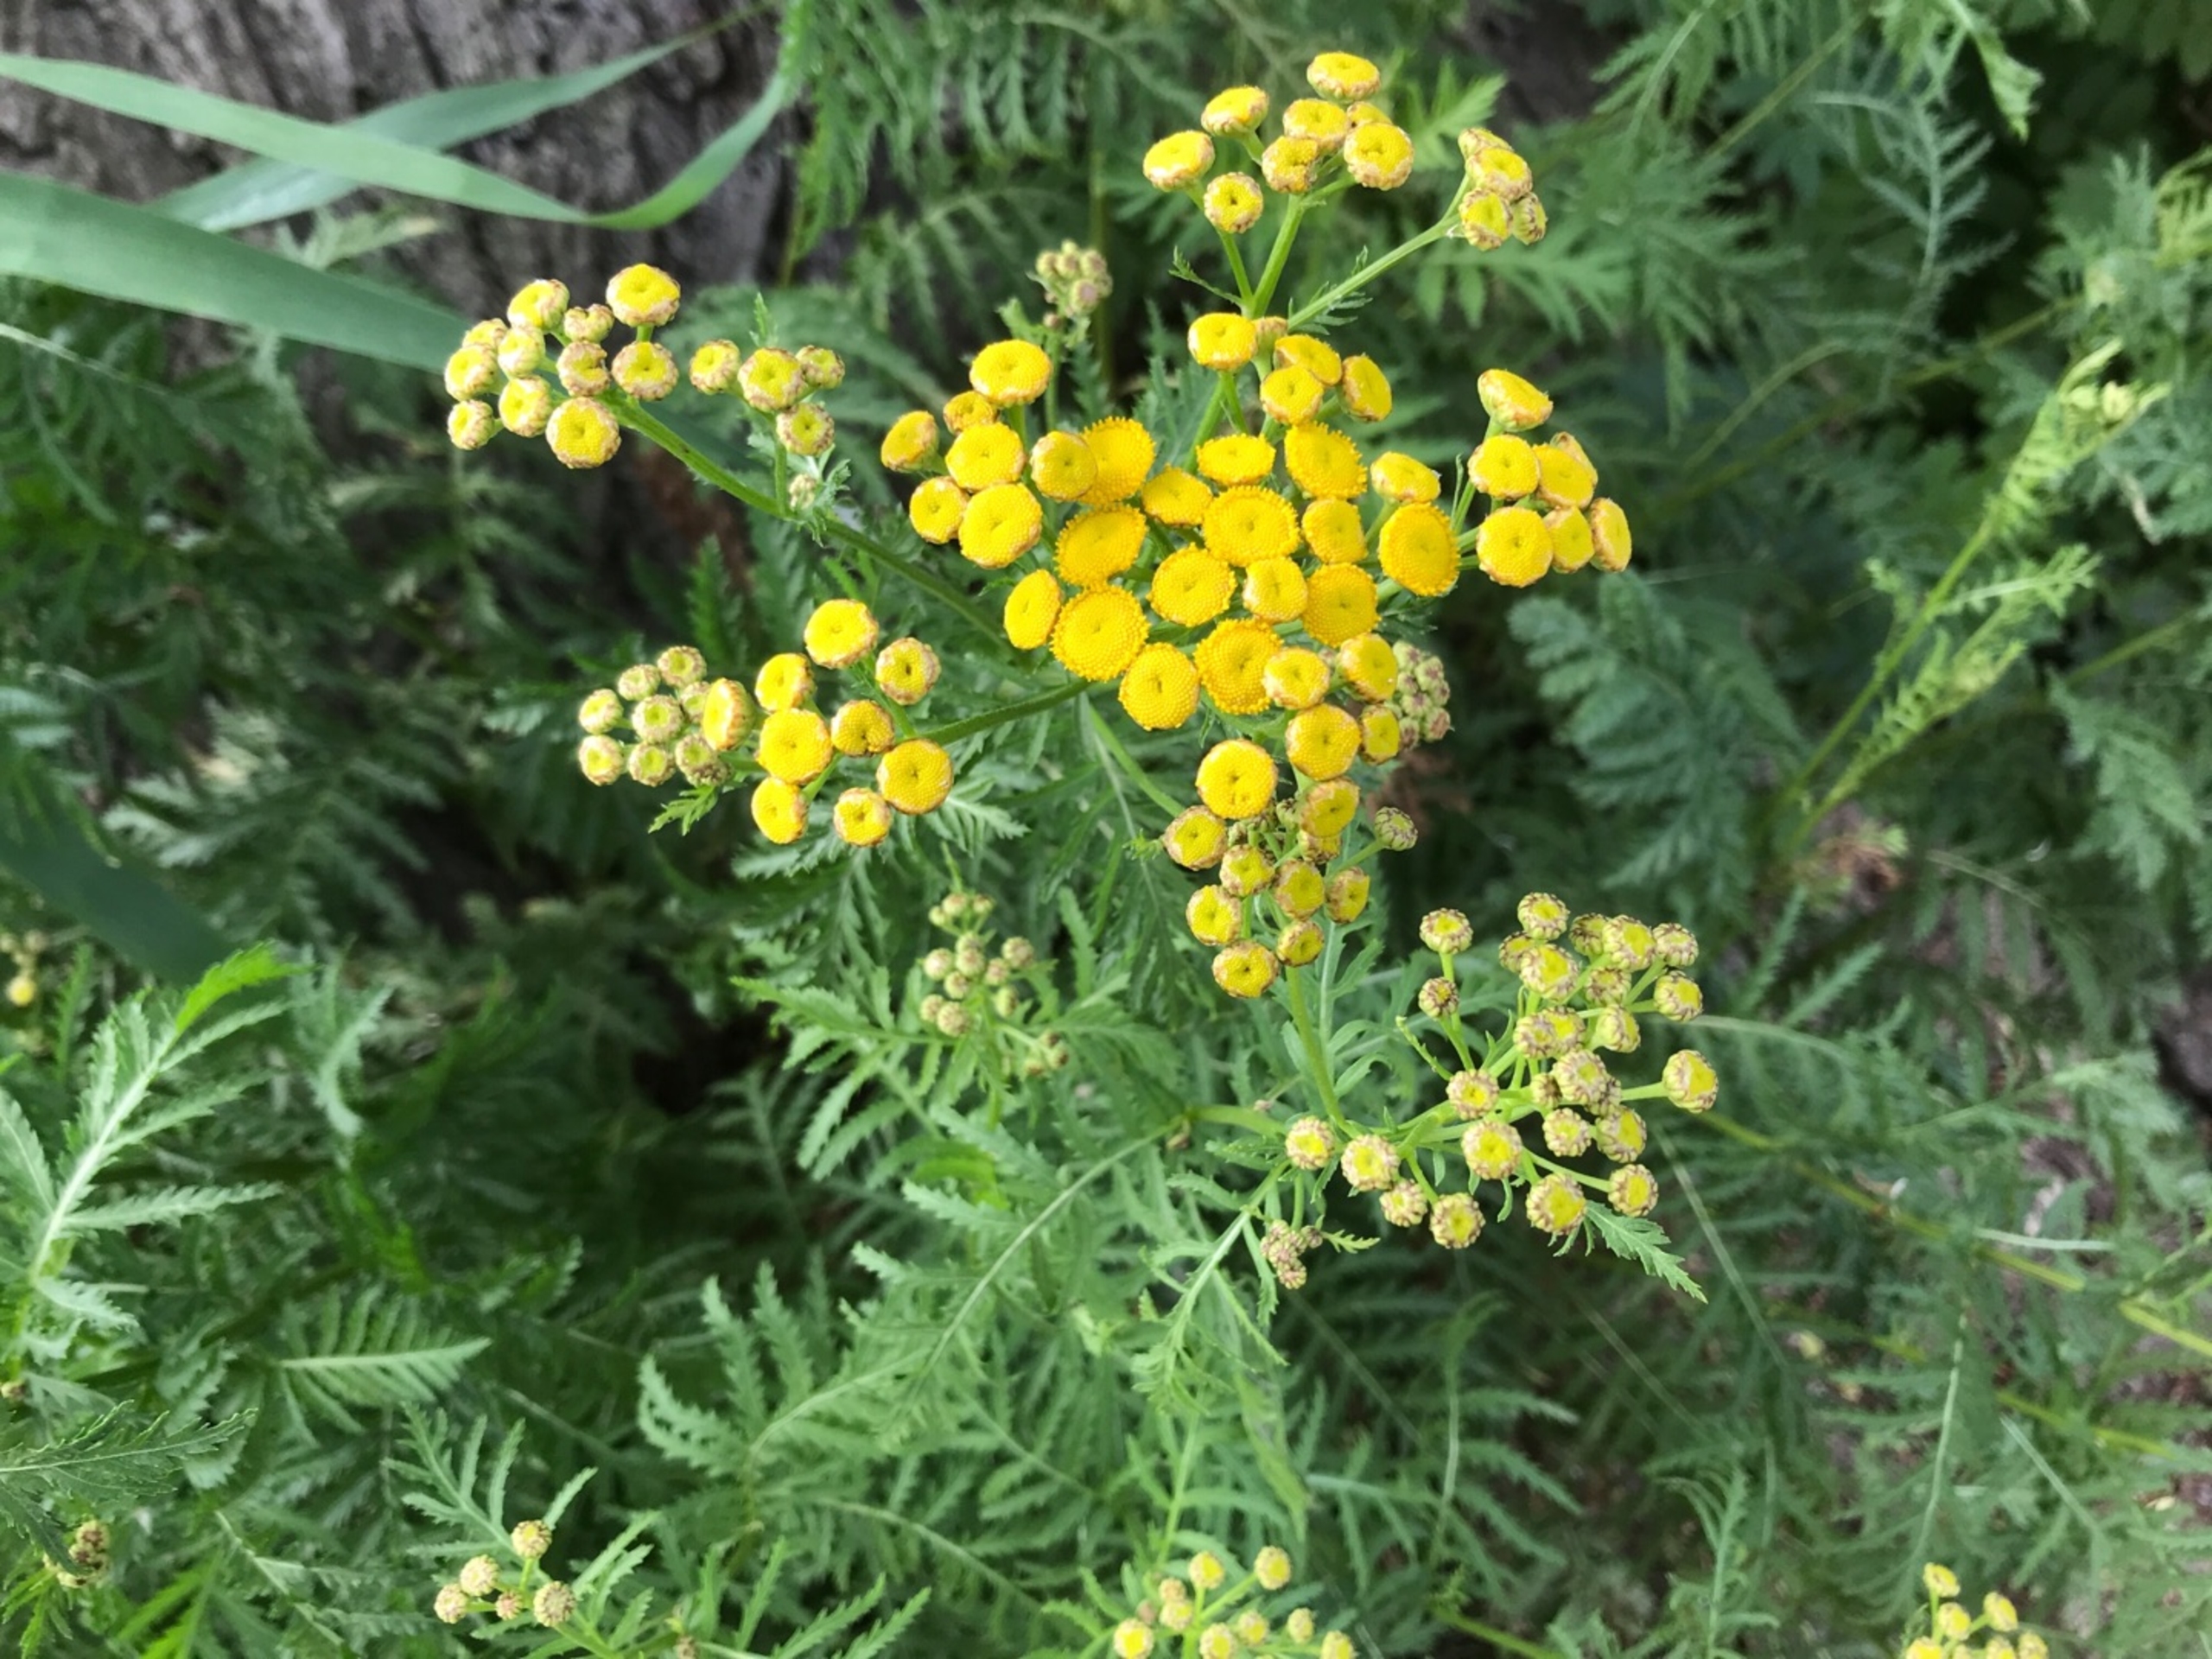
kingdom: Plantae
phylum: Tracheophyta
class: Magnoliopsida
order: Asterales
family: Asteraceae
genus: Tanacetum
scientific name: Tanacetum vulgare
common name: Rejnfan
